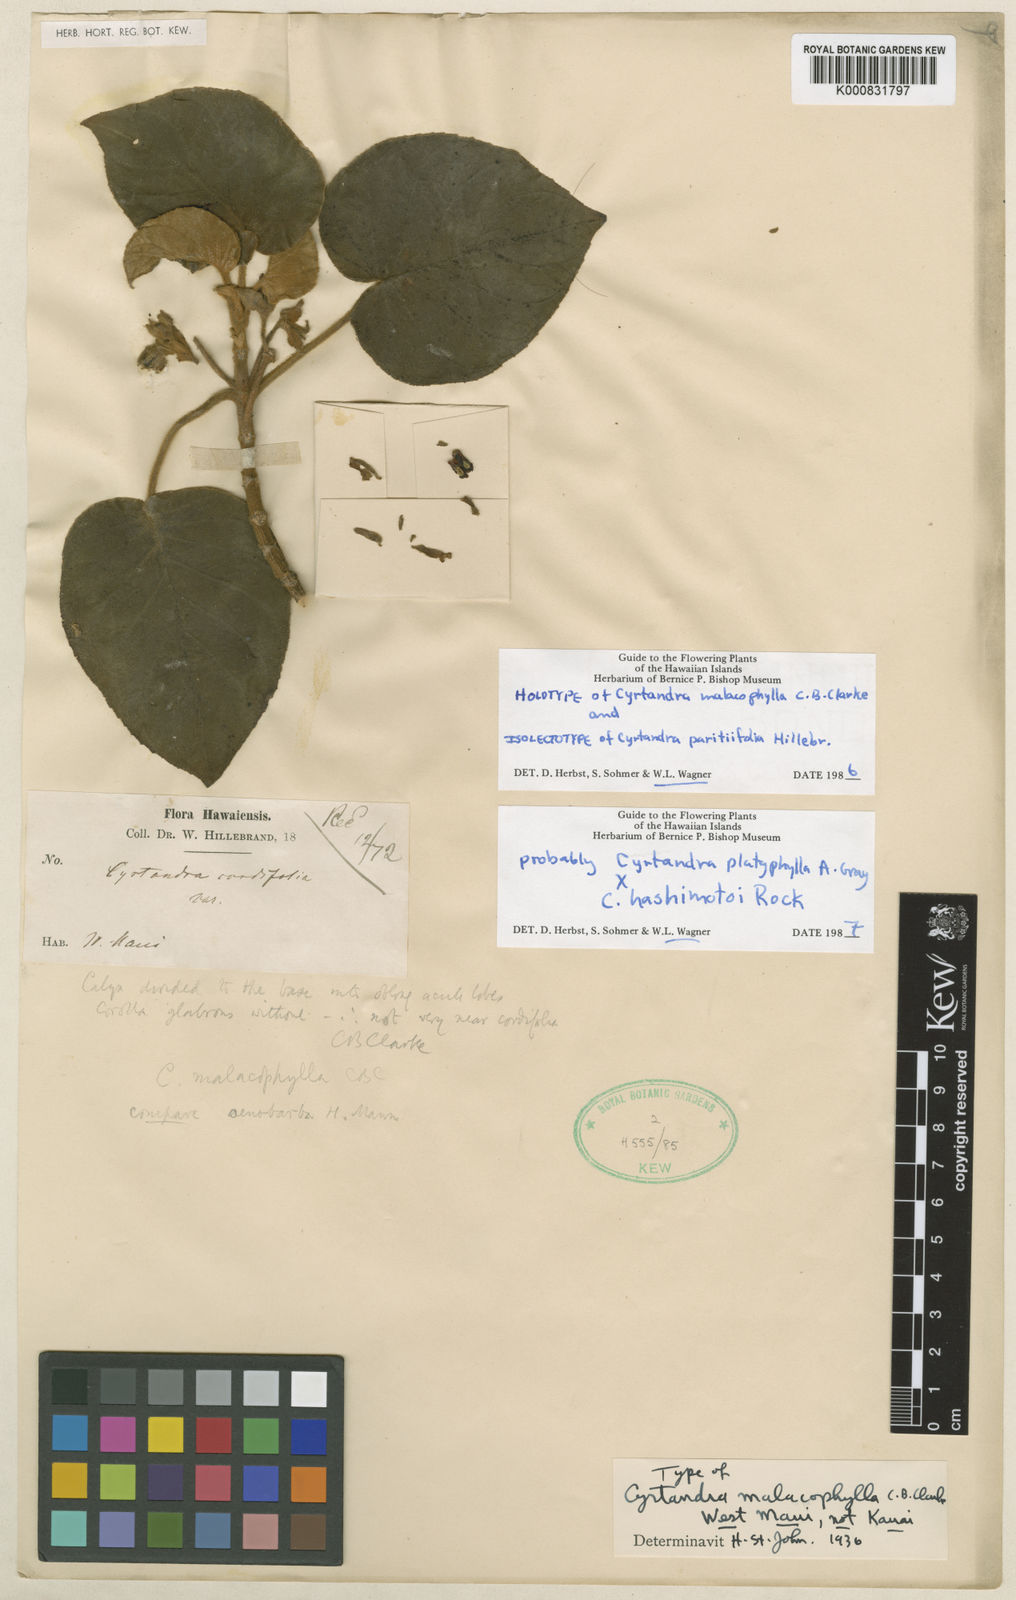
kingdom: Plantae
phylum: Tracheophyta
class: Magnoliopsida
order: Lamiales
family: Gesneriaceae
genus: Cyrtandra
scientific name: Cyrtandra malacophylla
